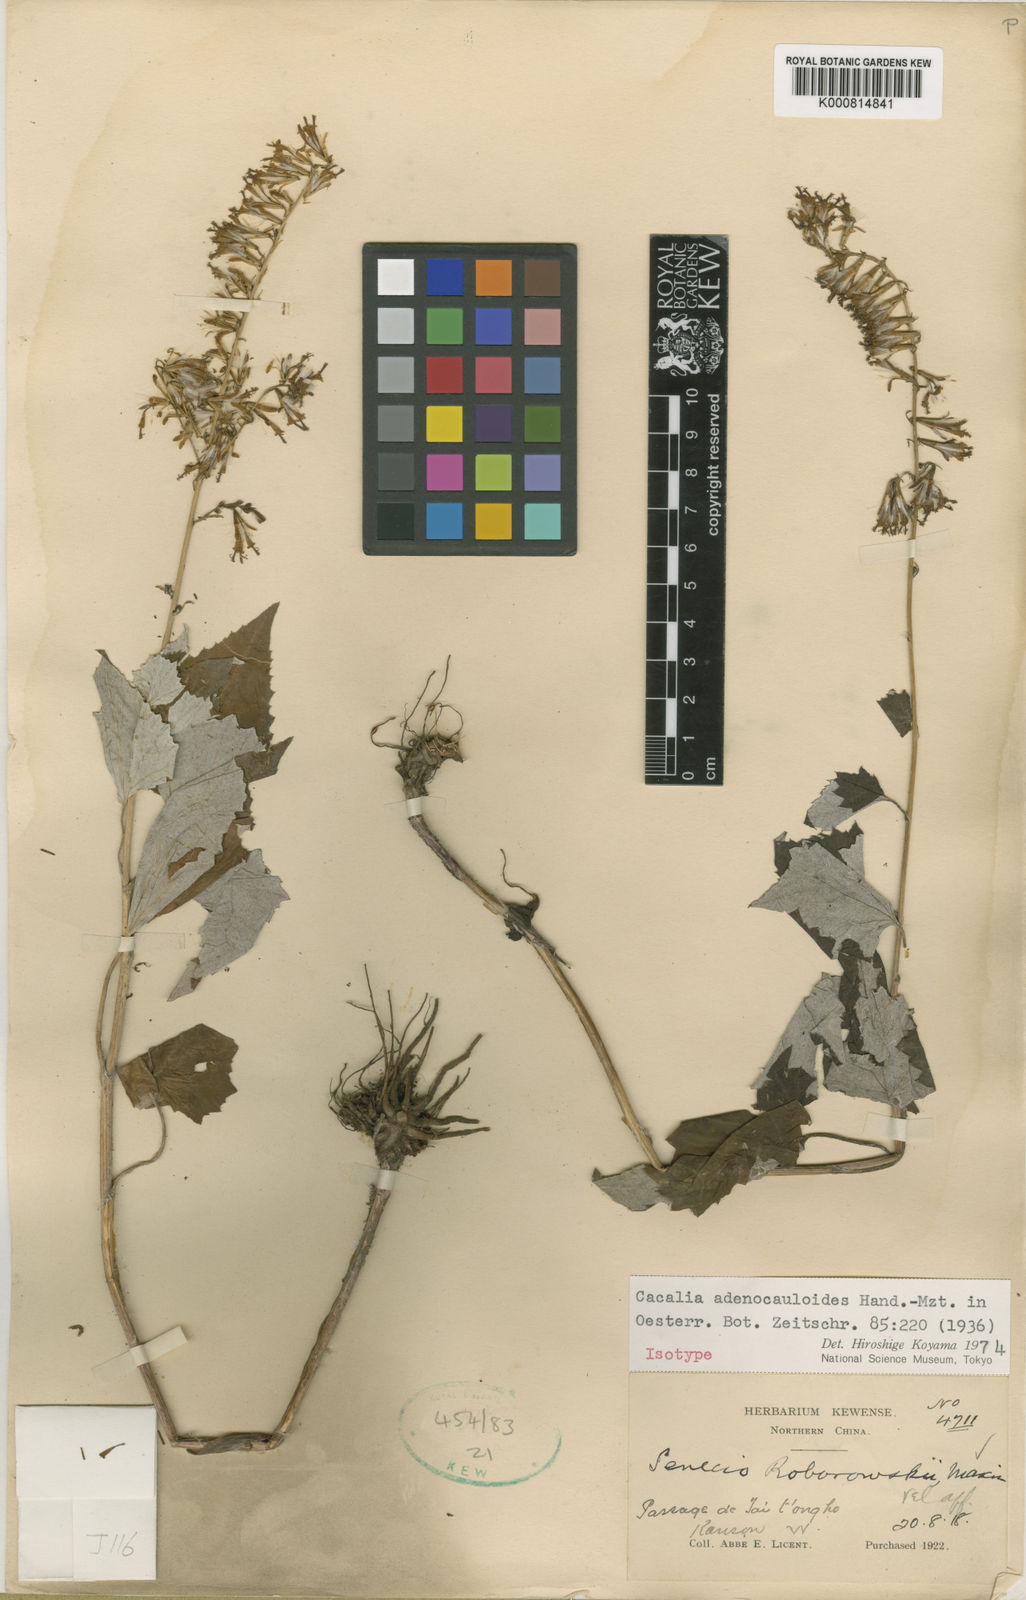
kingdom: Plantae
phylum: Tracheophyta
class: Magnoliopsida
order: Asterales
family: Asteraceae
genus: Parasenecio
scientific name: Parasenecio
